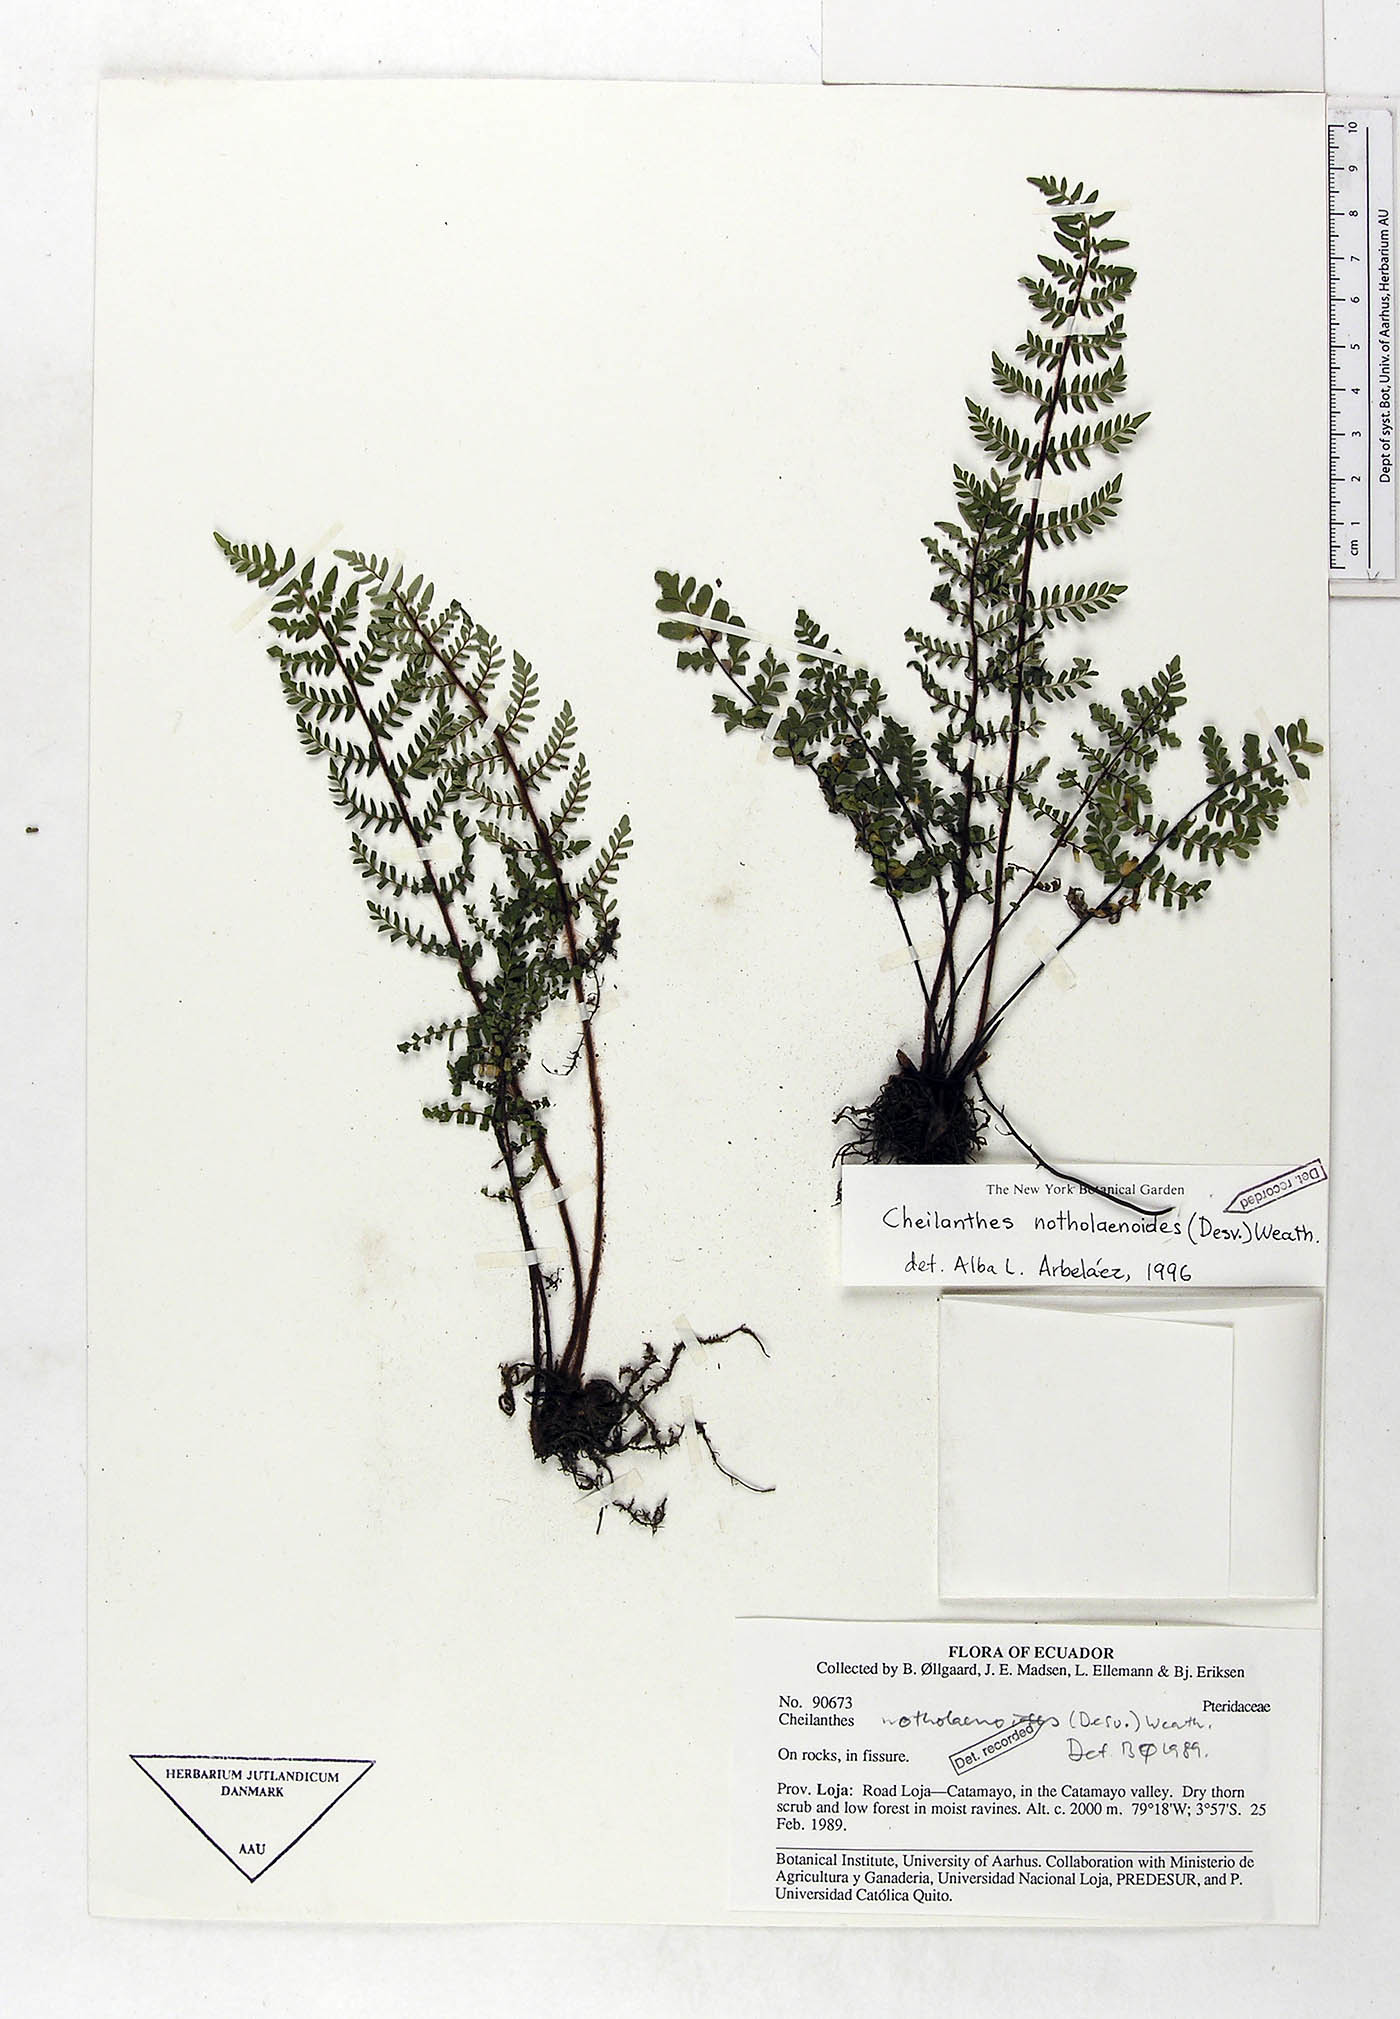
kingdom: Plantae
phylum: Tracheophyta
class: Polypodiopsida
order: Polypodiales
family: Pteridaceae
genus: Myriopteris
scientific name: Myriopteris notholaenoides
